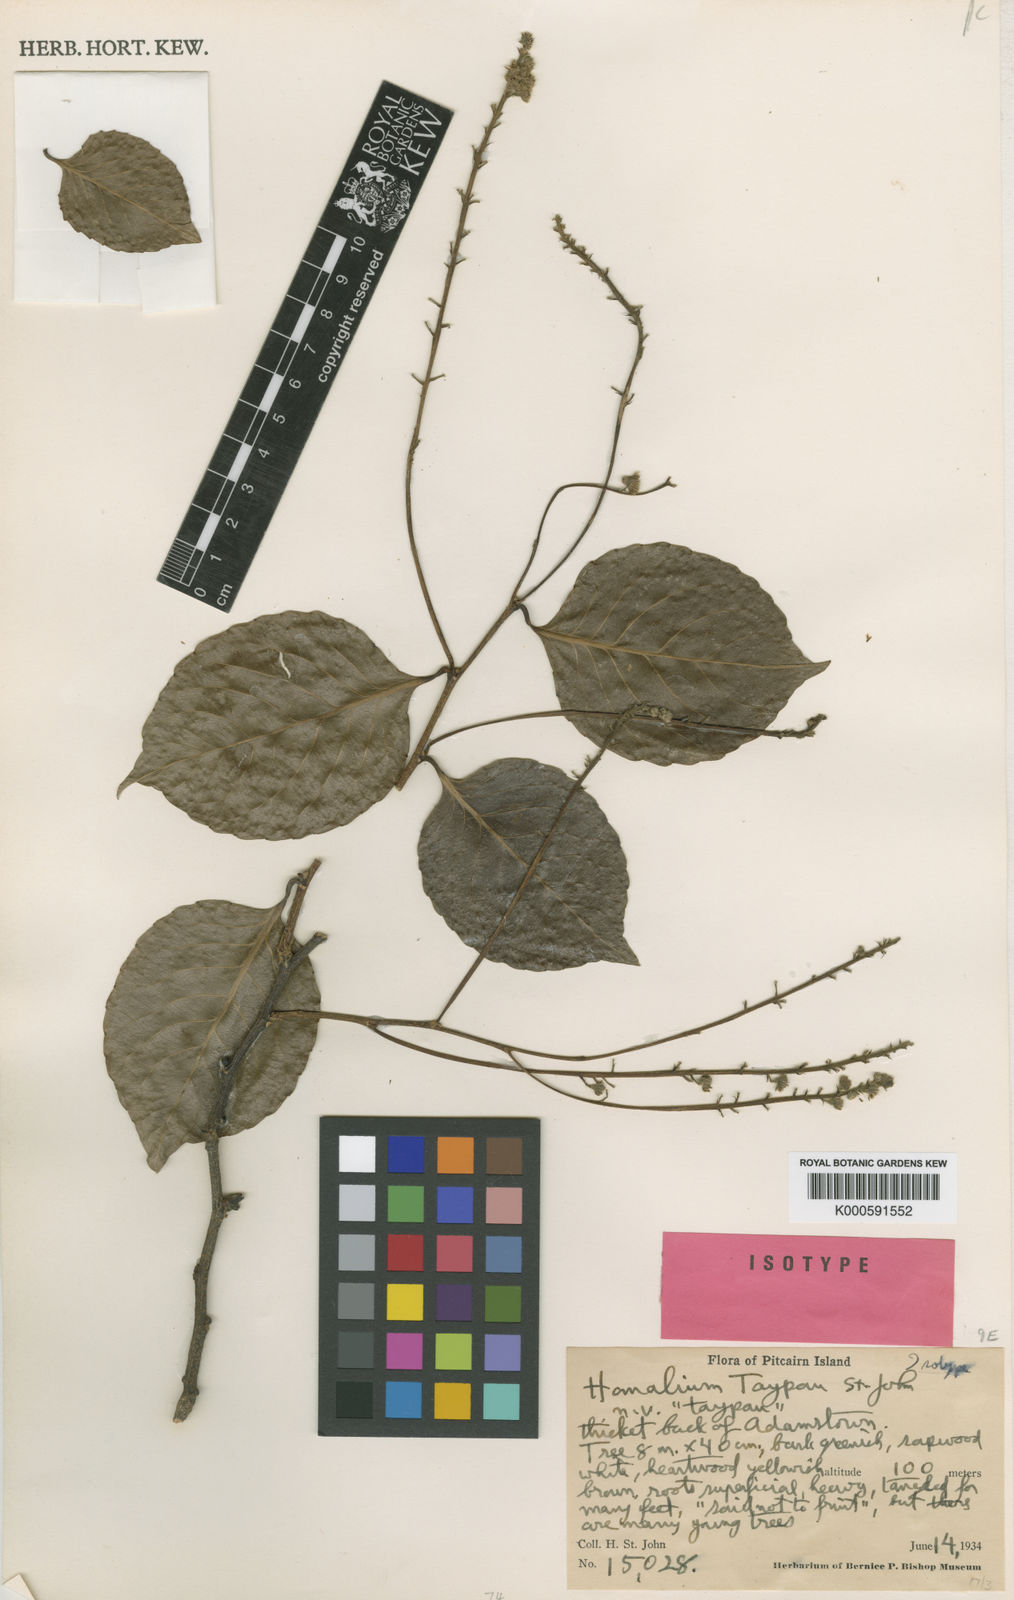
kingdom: Plantae
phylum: Tracheophyta
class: Magnoliopsida
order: Malpighiales
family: Salicaceae
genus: Homalium
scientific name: Homalium taypau
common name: Taypau
